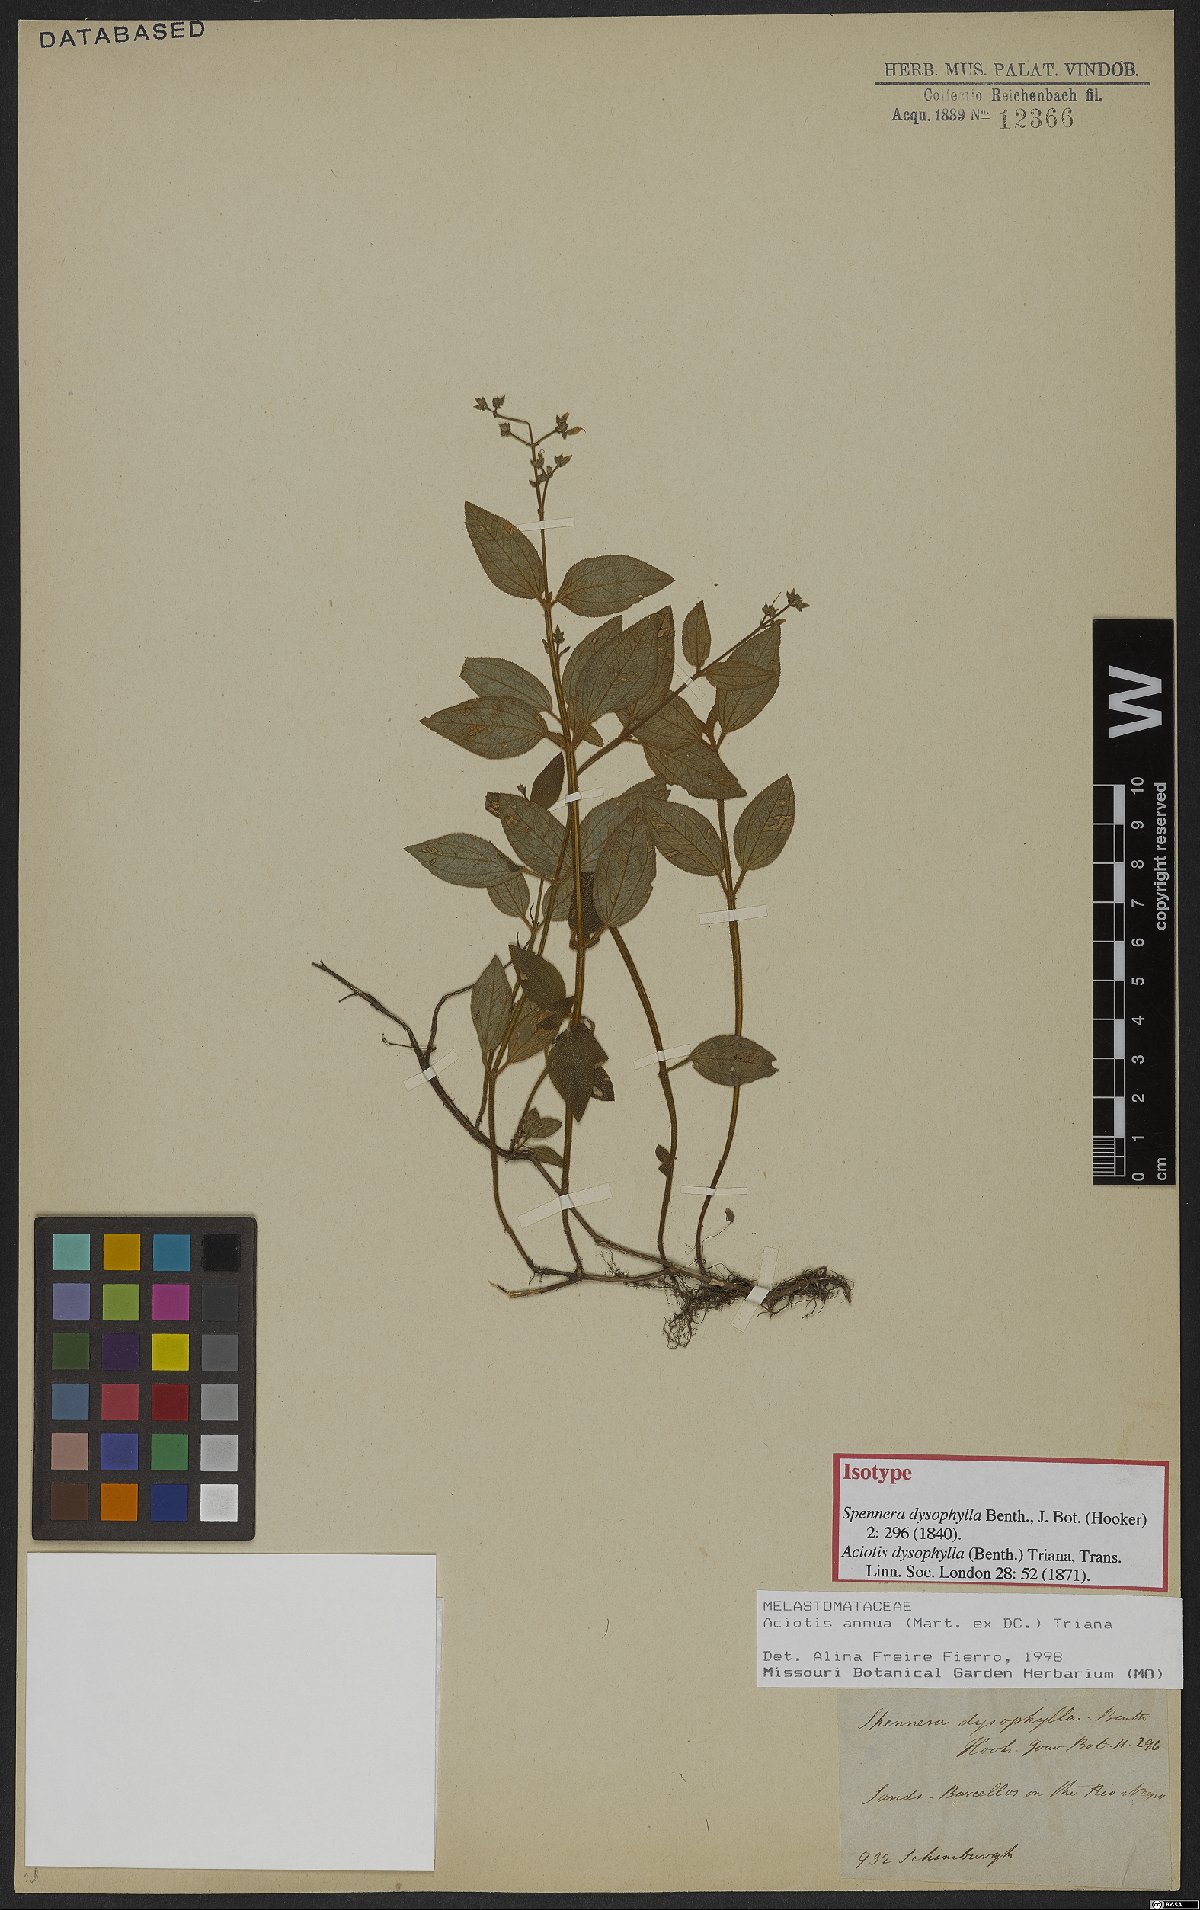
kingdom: Plantae
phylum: Tracheophyta
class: Magnoliopsida
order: Myrtales
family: Melastomataceae
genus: Aciotis
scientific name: Aciotis annua
